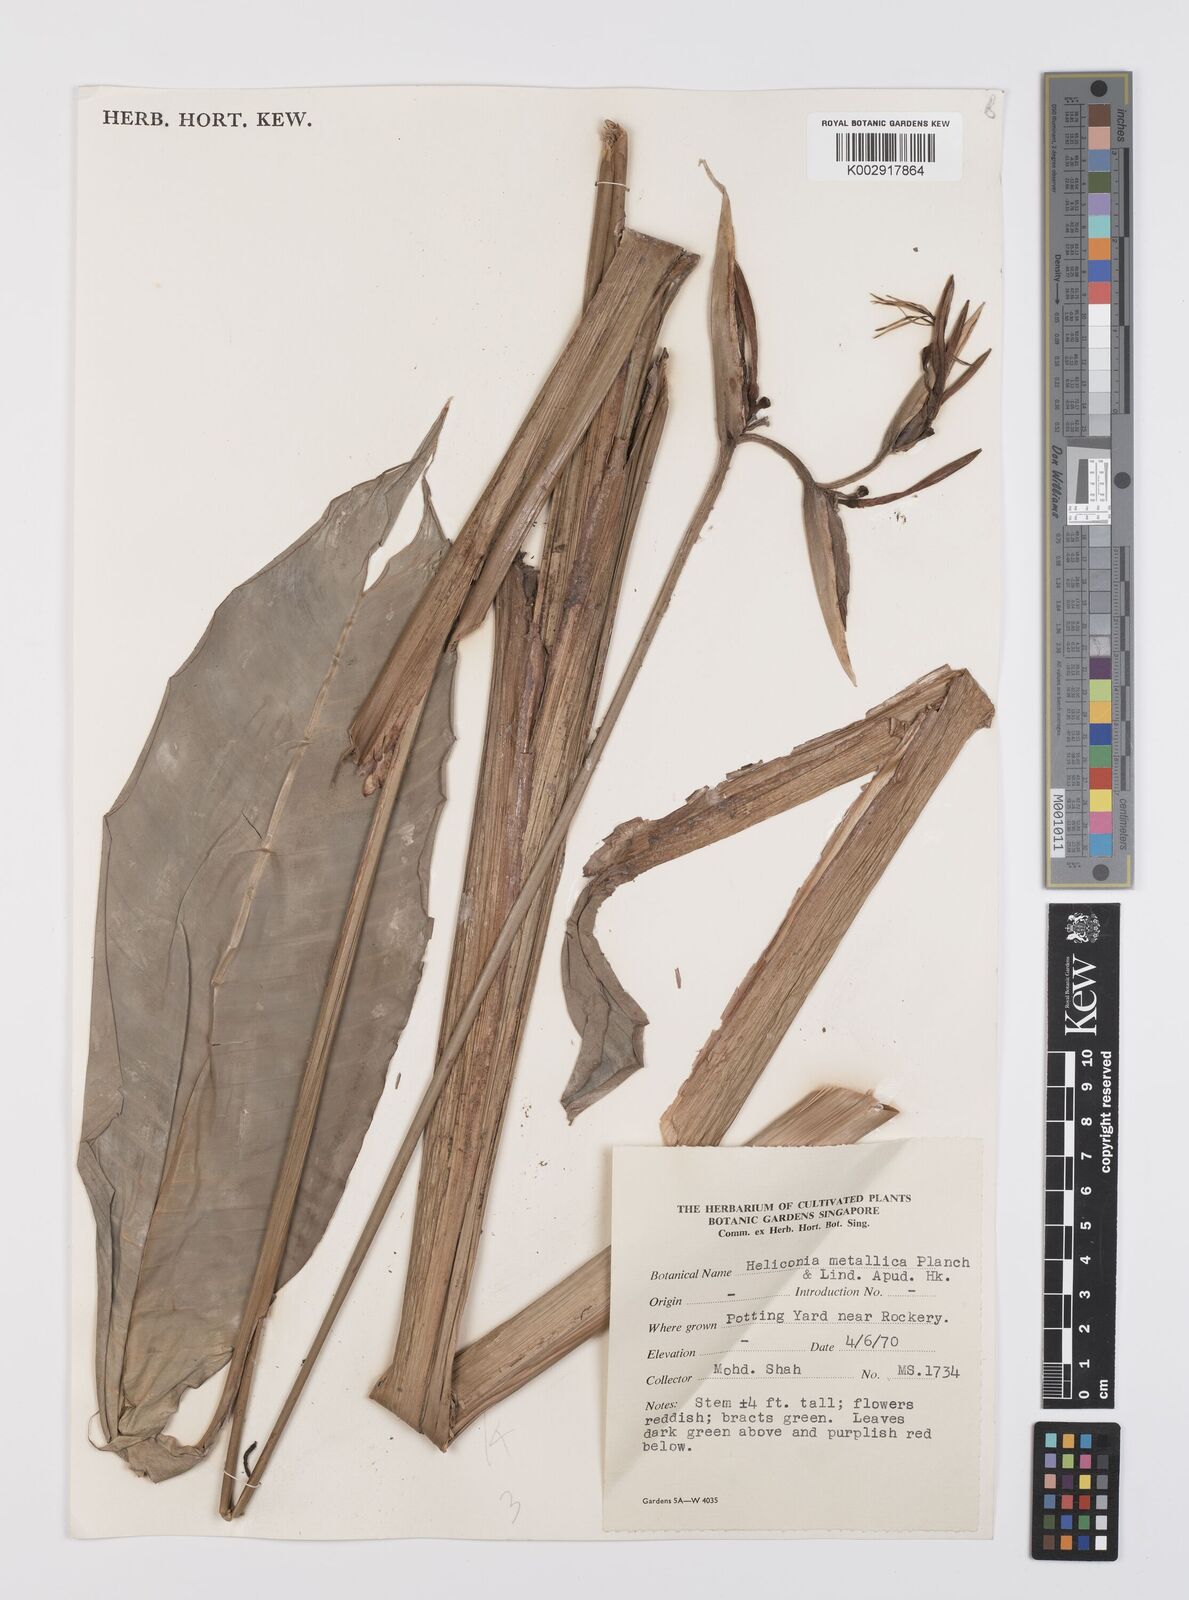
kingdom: Plantae
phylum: Tracheophyta
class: Liliopsida
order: Zingiberales
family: Heliconiaceae
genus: Heliconia
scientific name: Heliconia metallica
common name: Shining bird of paradise
